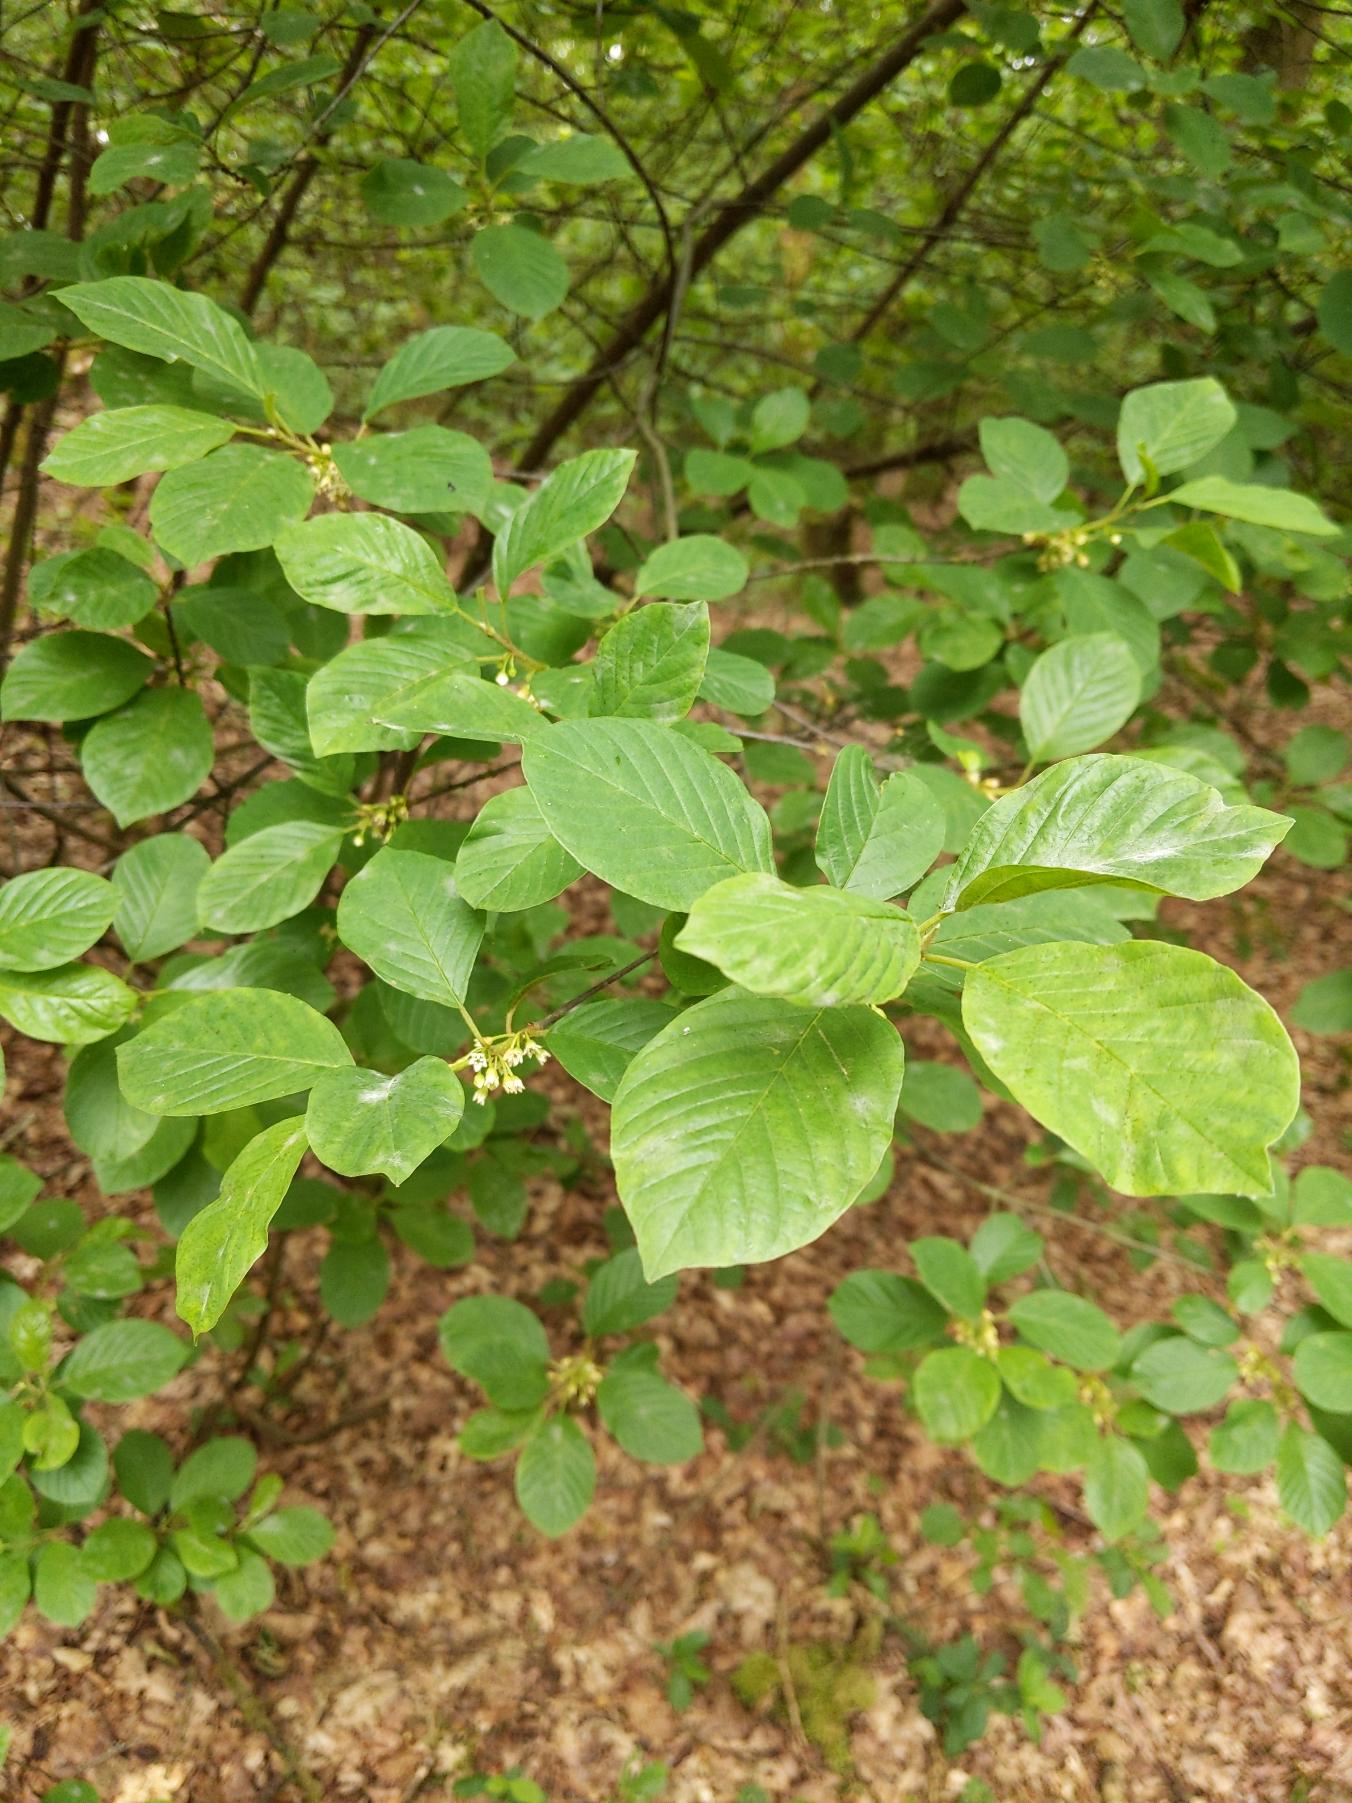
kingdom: Plantae
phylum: Tracheophyta
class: Magnoliopsida
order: Rosales
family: Rhamnaceae
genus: Frangula
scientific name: Frangula alnus
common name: Tørst
